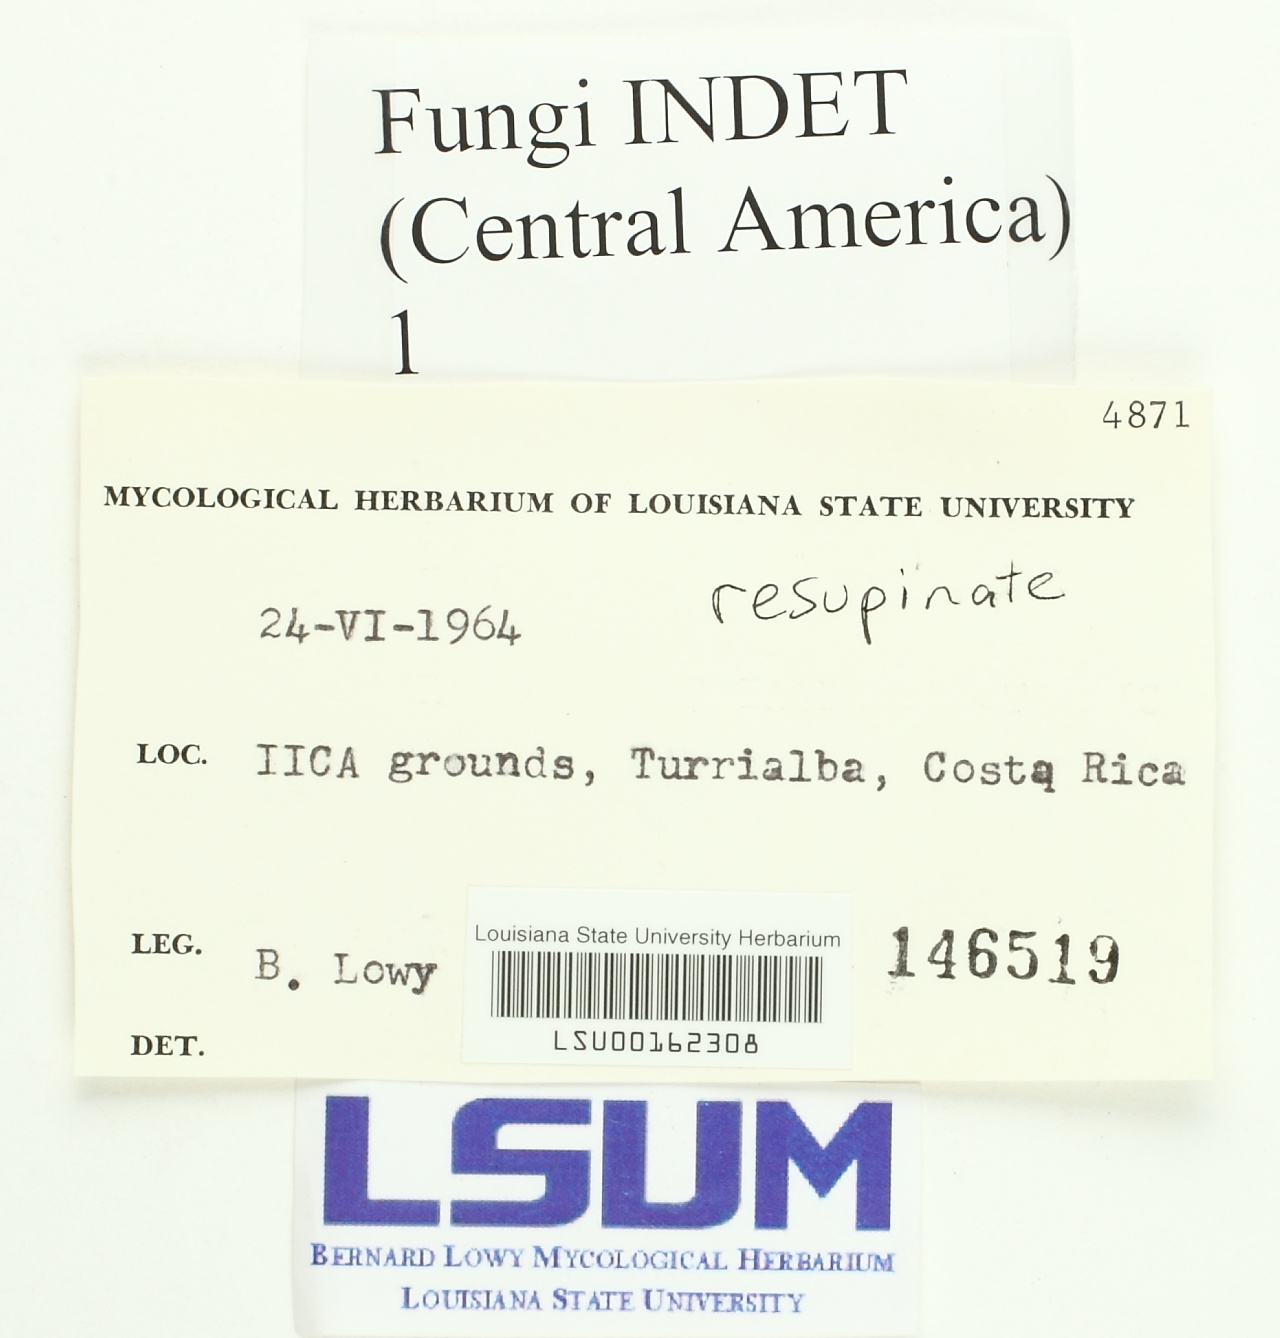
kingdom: Fungi
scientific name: Fungi
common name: Fungi
